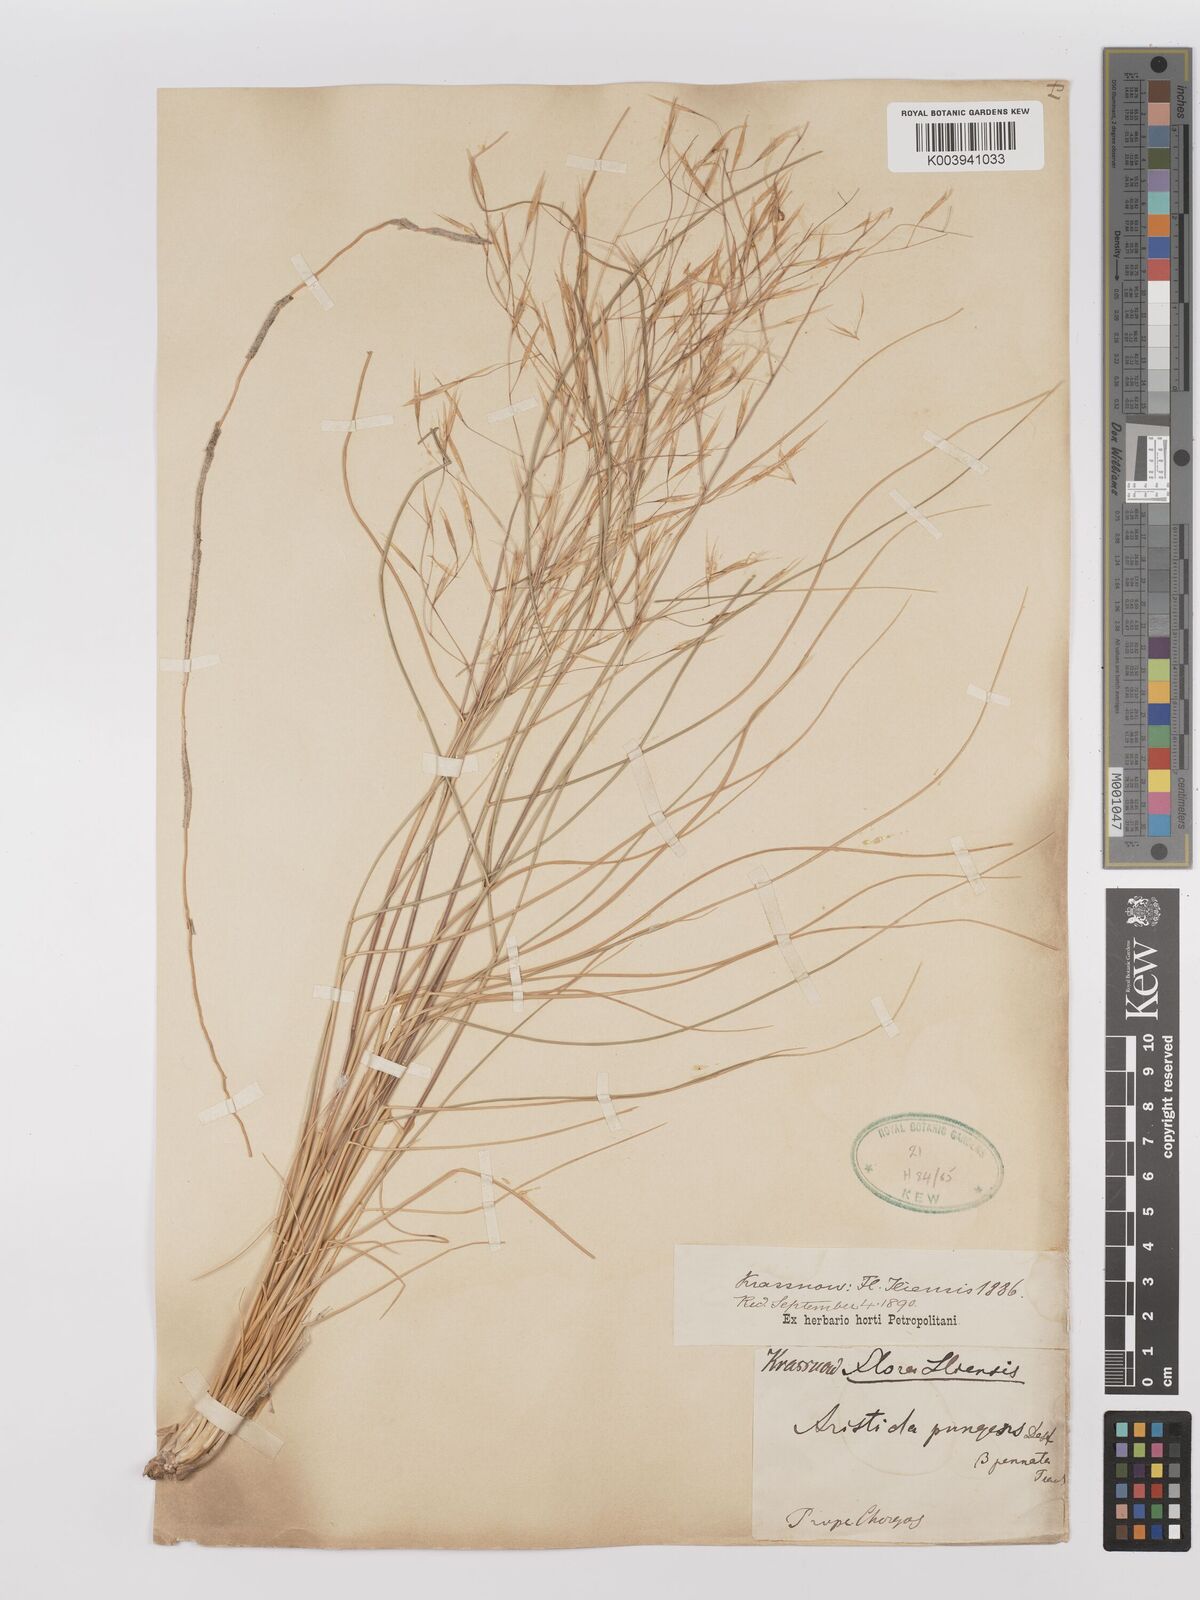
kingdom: Plantae
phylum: Tracheophyta
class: Liliopsida
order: Poales
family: Poaceae
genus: Stipagrostis
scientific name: Stipagrostis pungens
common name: Three-awn grass
